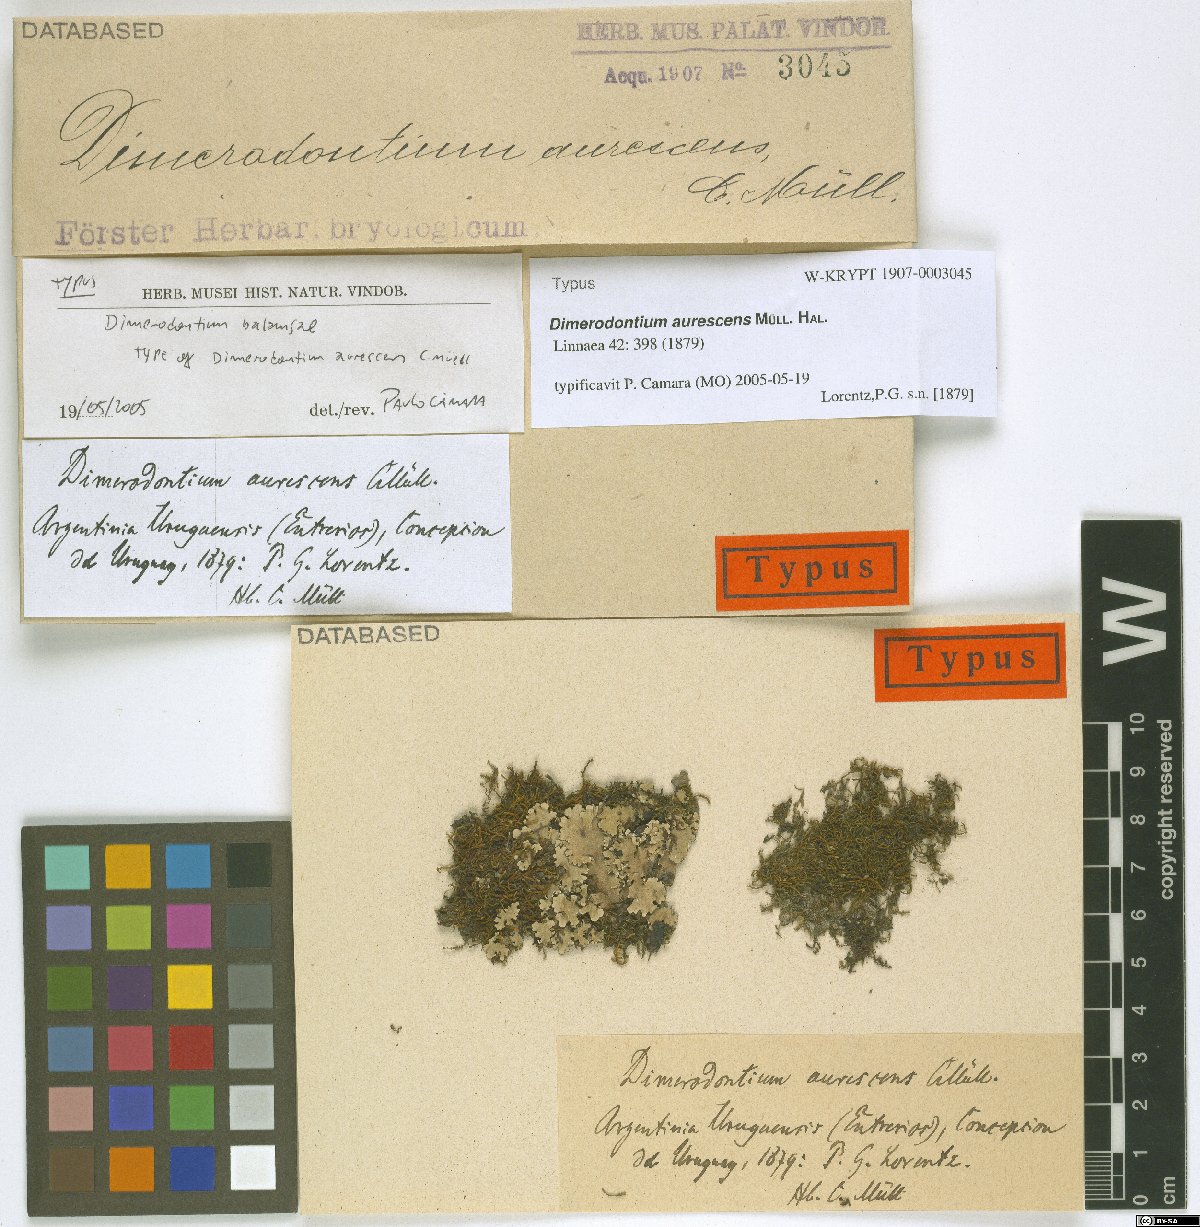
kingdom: Plantae
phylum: Bryophyta
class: Bryopsida
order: Hypnales
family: Fabroniaceae
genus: Dimerodontium
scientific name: Dimerodontium pellucidum
